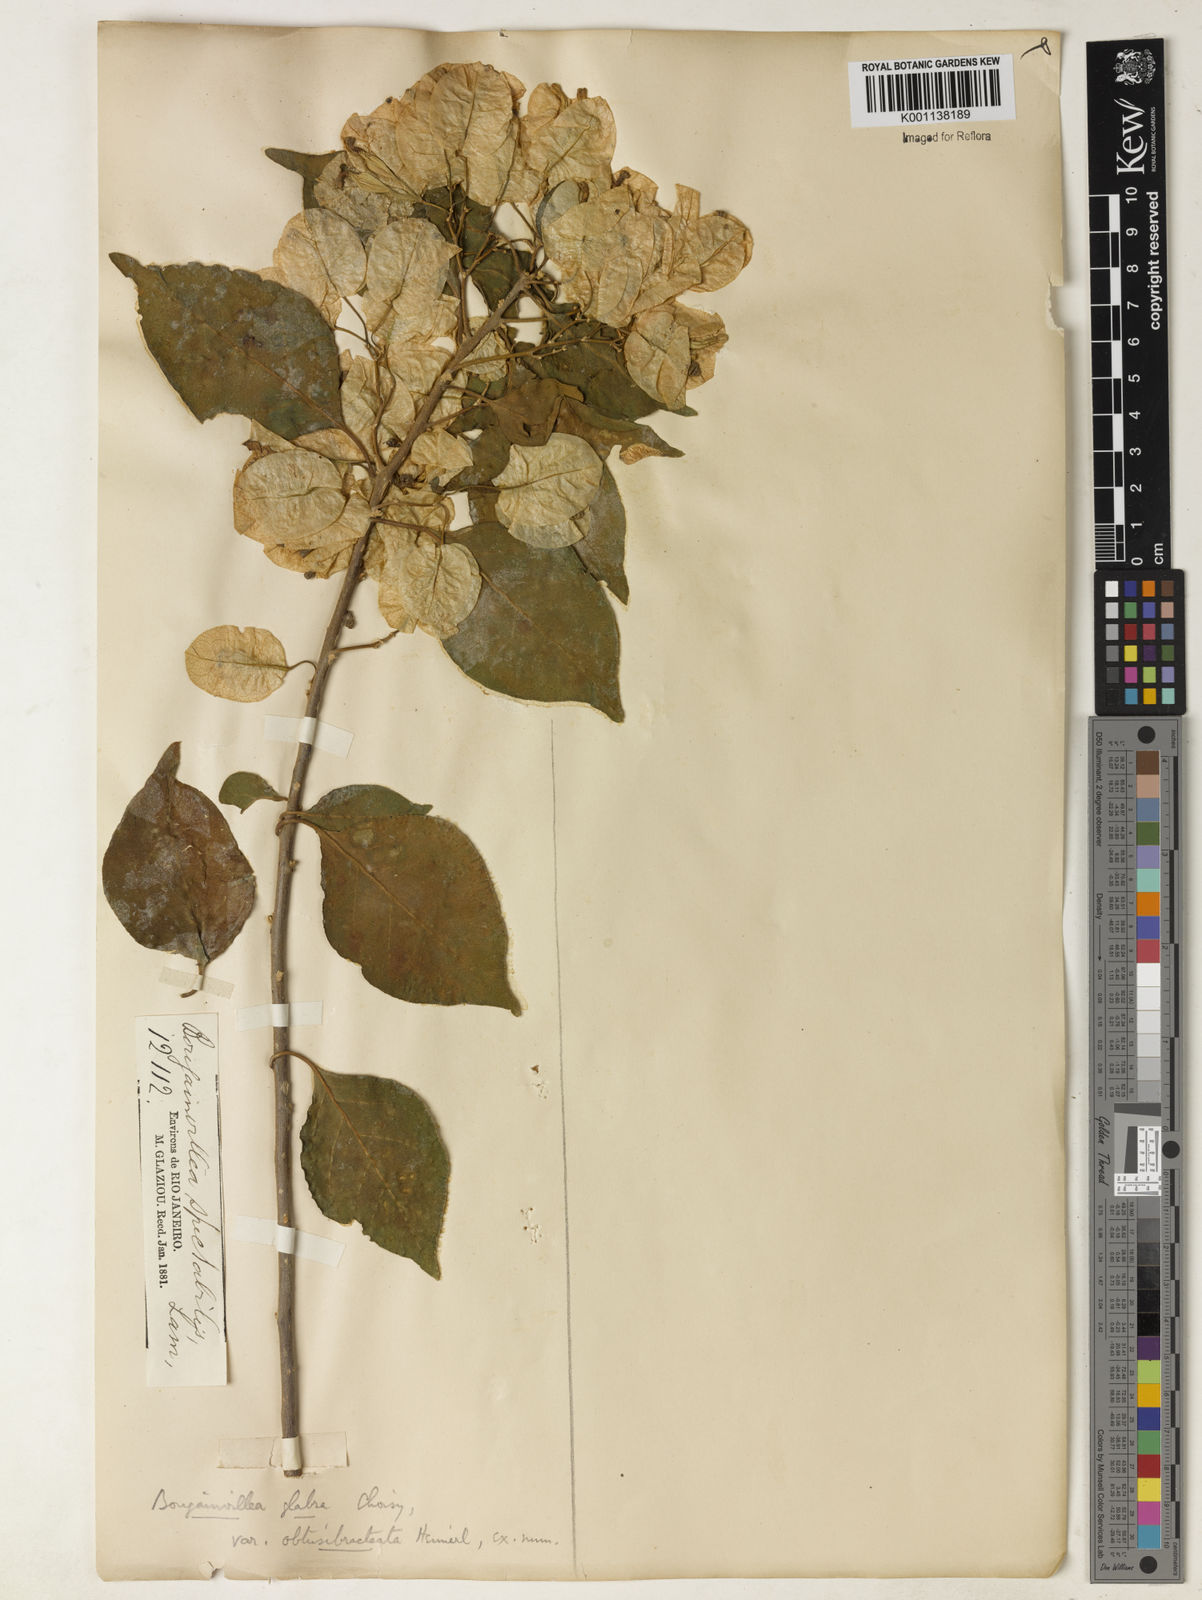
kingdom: Plantae
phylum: Tracheophyta
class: Magnoliopsida
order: Caryophyllales
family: Nyctaginaceae
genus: Bougainvillea
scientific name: Bougainvillea glabra
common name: Paperflower
